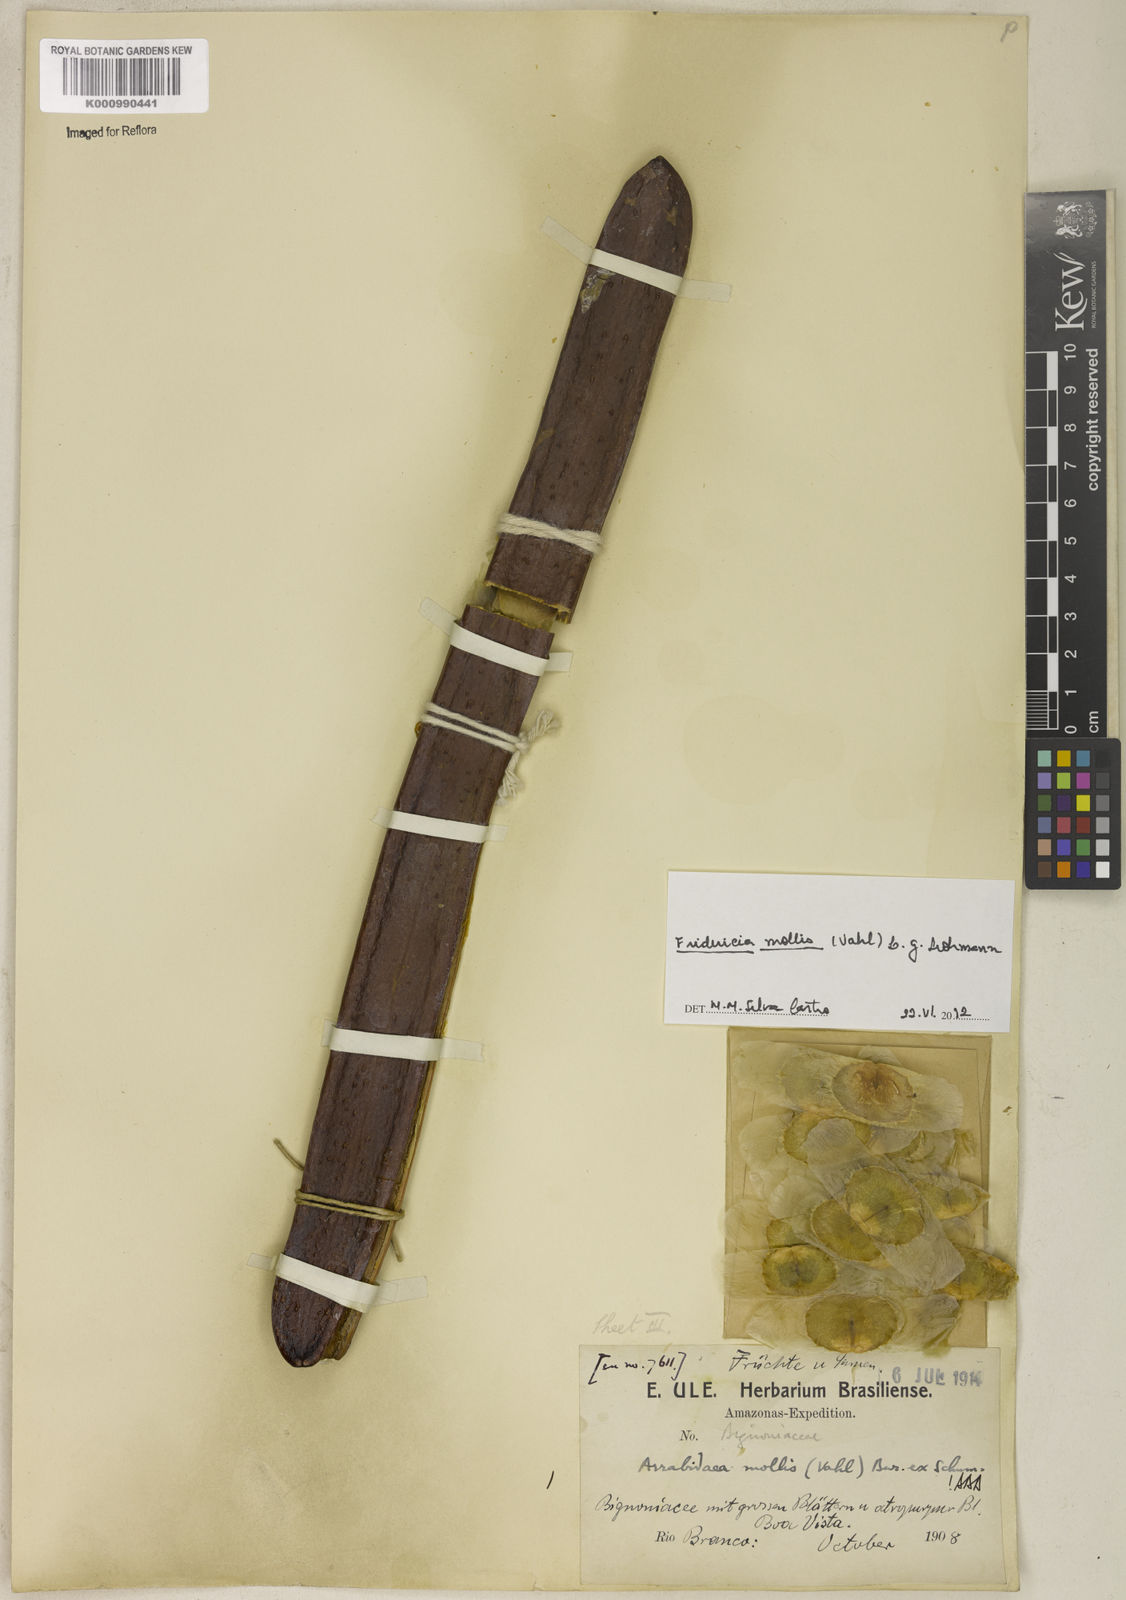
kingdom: Plantae
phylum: Tracheophyta
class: Magnoliopsida
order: Lamiales
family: Bignoniaceae
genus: Fridericia
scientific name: Fridericia mollis
